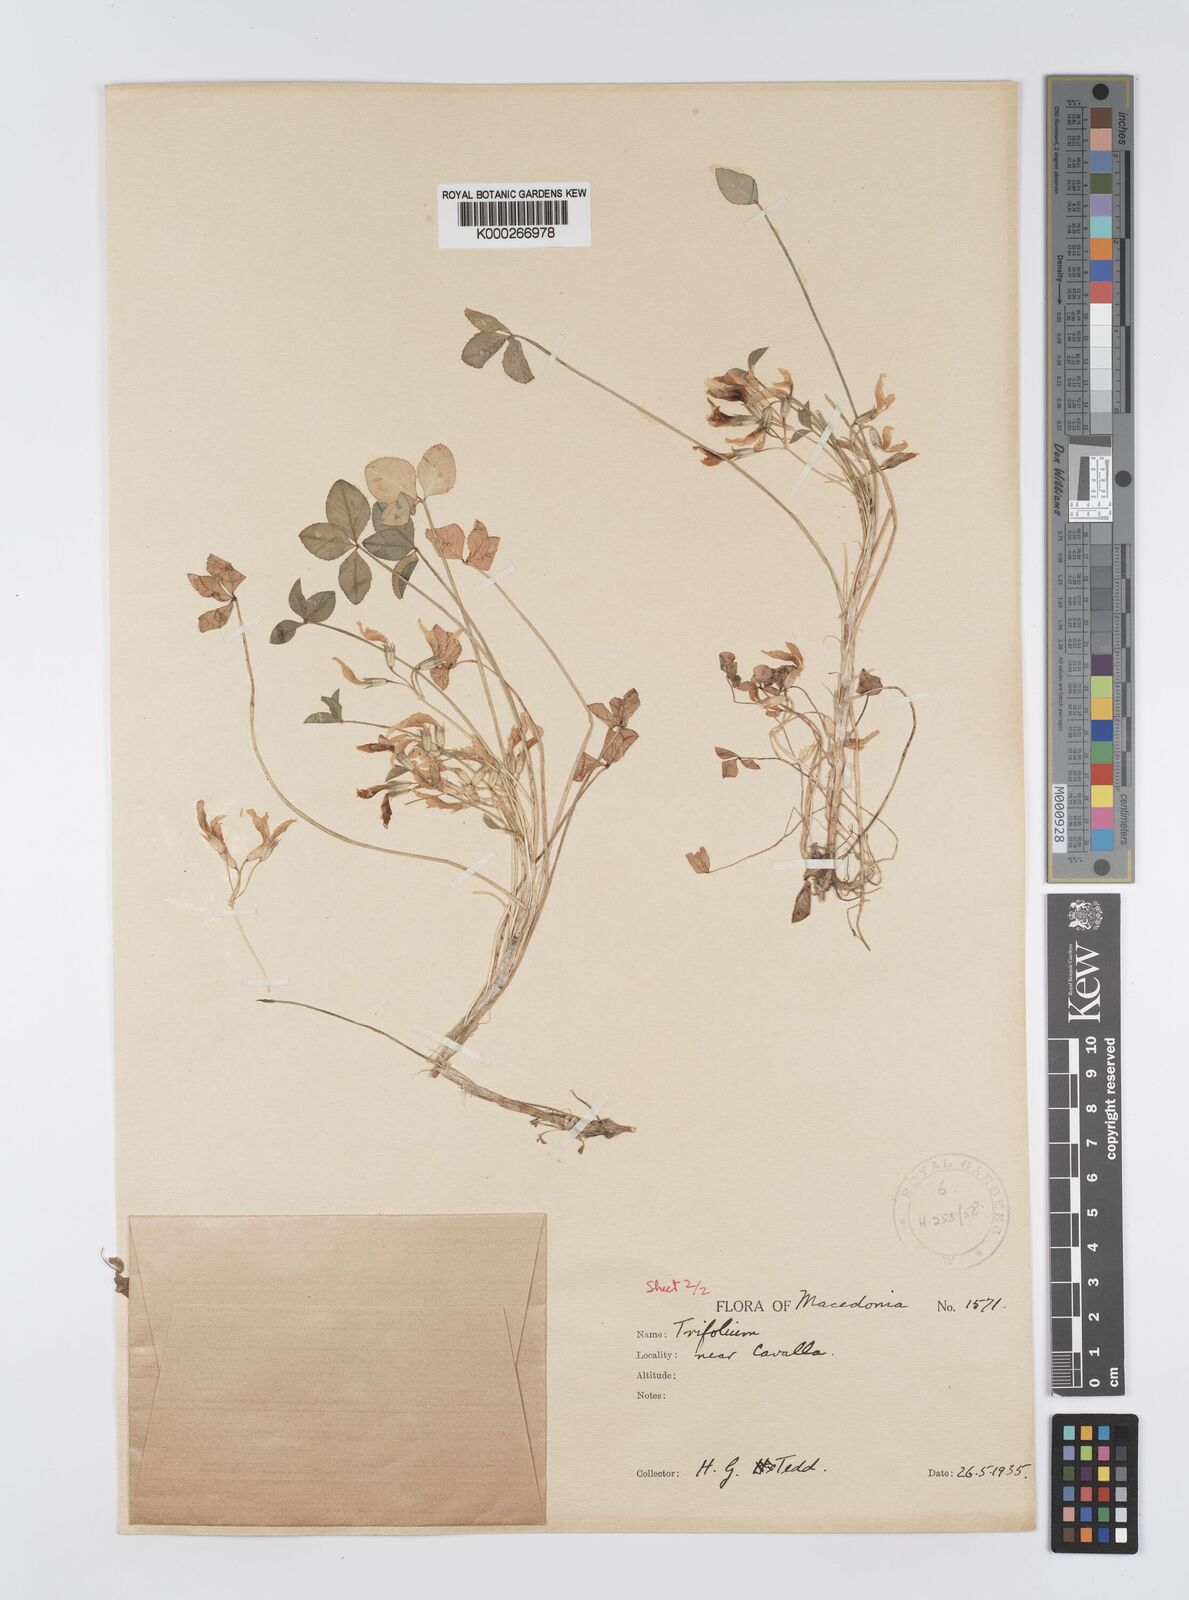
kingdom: Plantae
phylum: Tracheophyta
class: Magnoliopsida
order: Fabales
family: Fabaceae
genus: Trifolium
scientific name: Trifolium uniflorum
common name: One-flower clover
